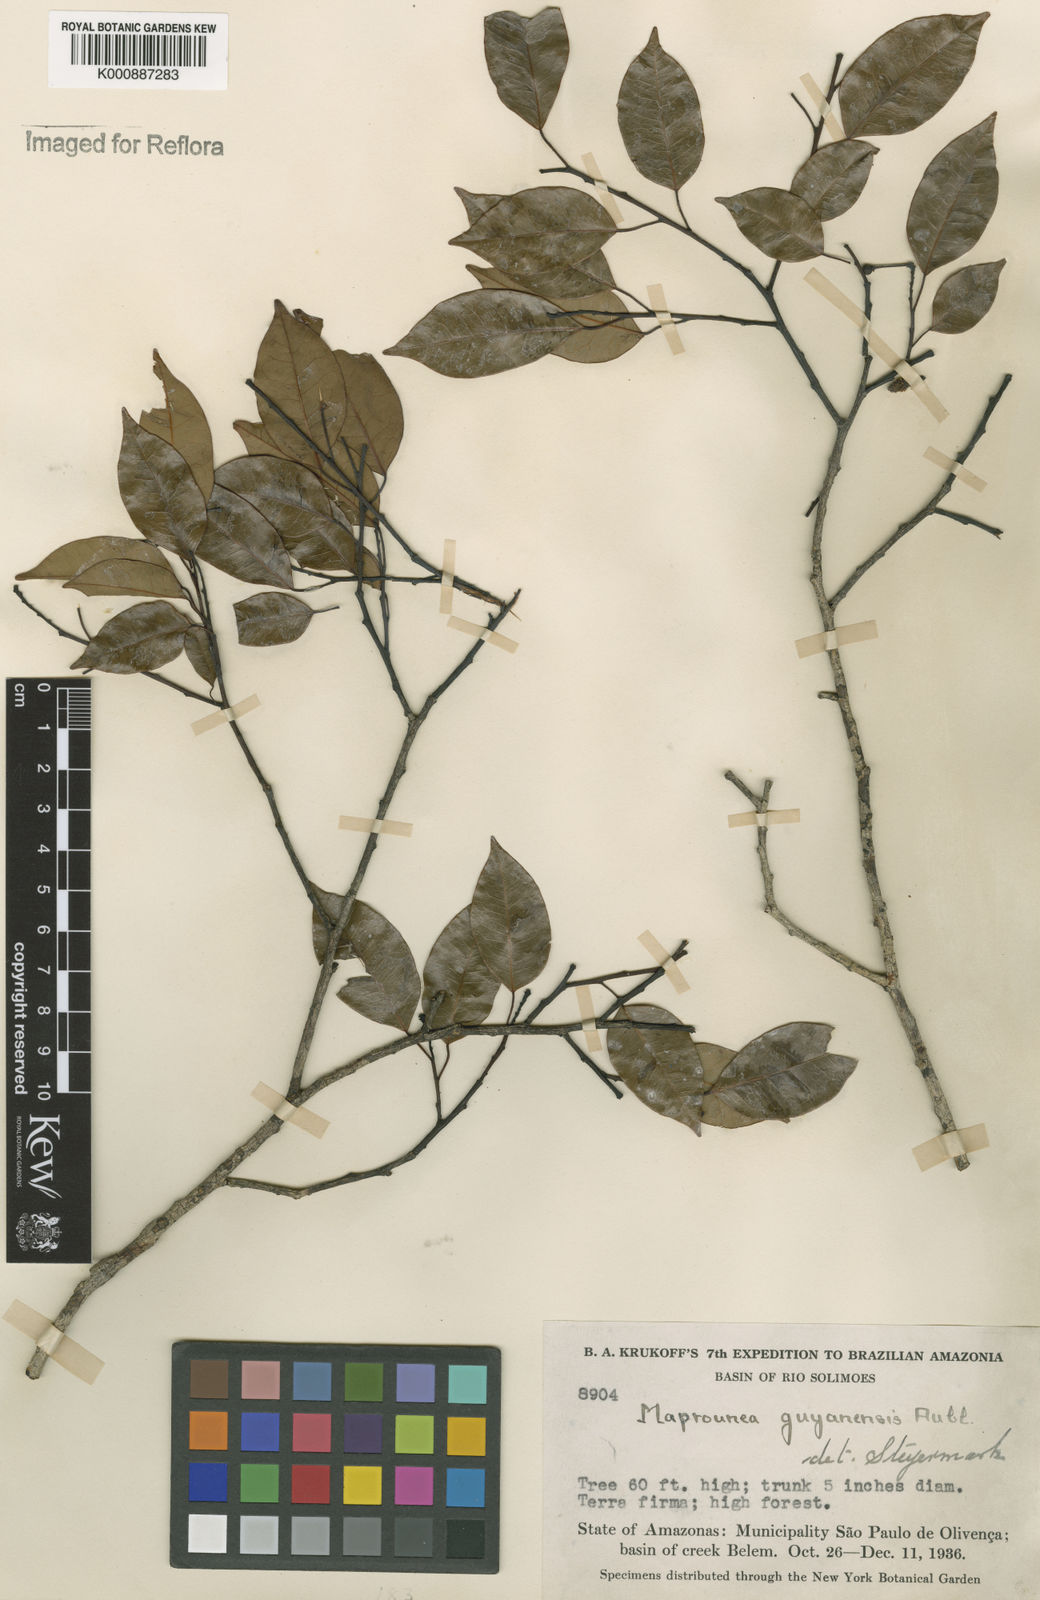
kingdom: Plantae
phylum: Tracheophyta
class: Magnoliopsida
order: Malpighiales
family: Euphorbiaceae
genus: Maprounea
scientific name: Maprounea guianensis
